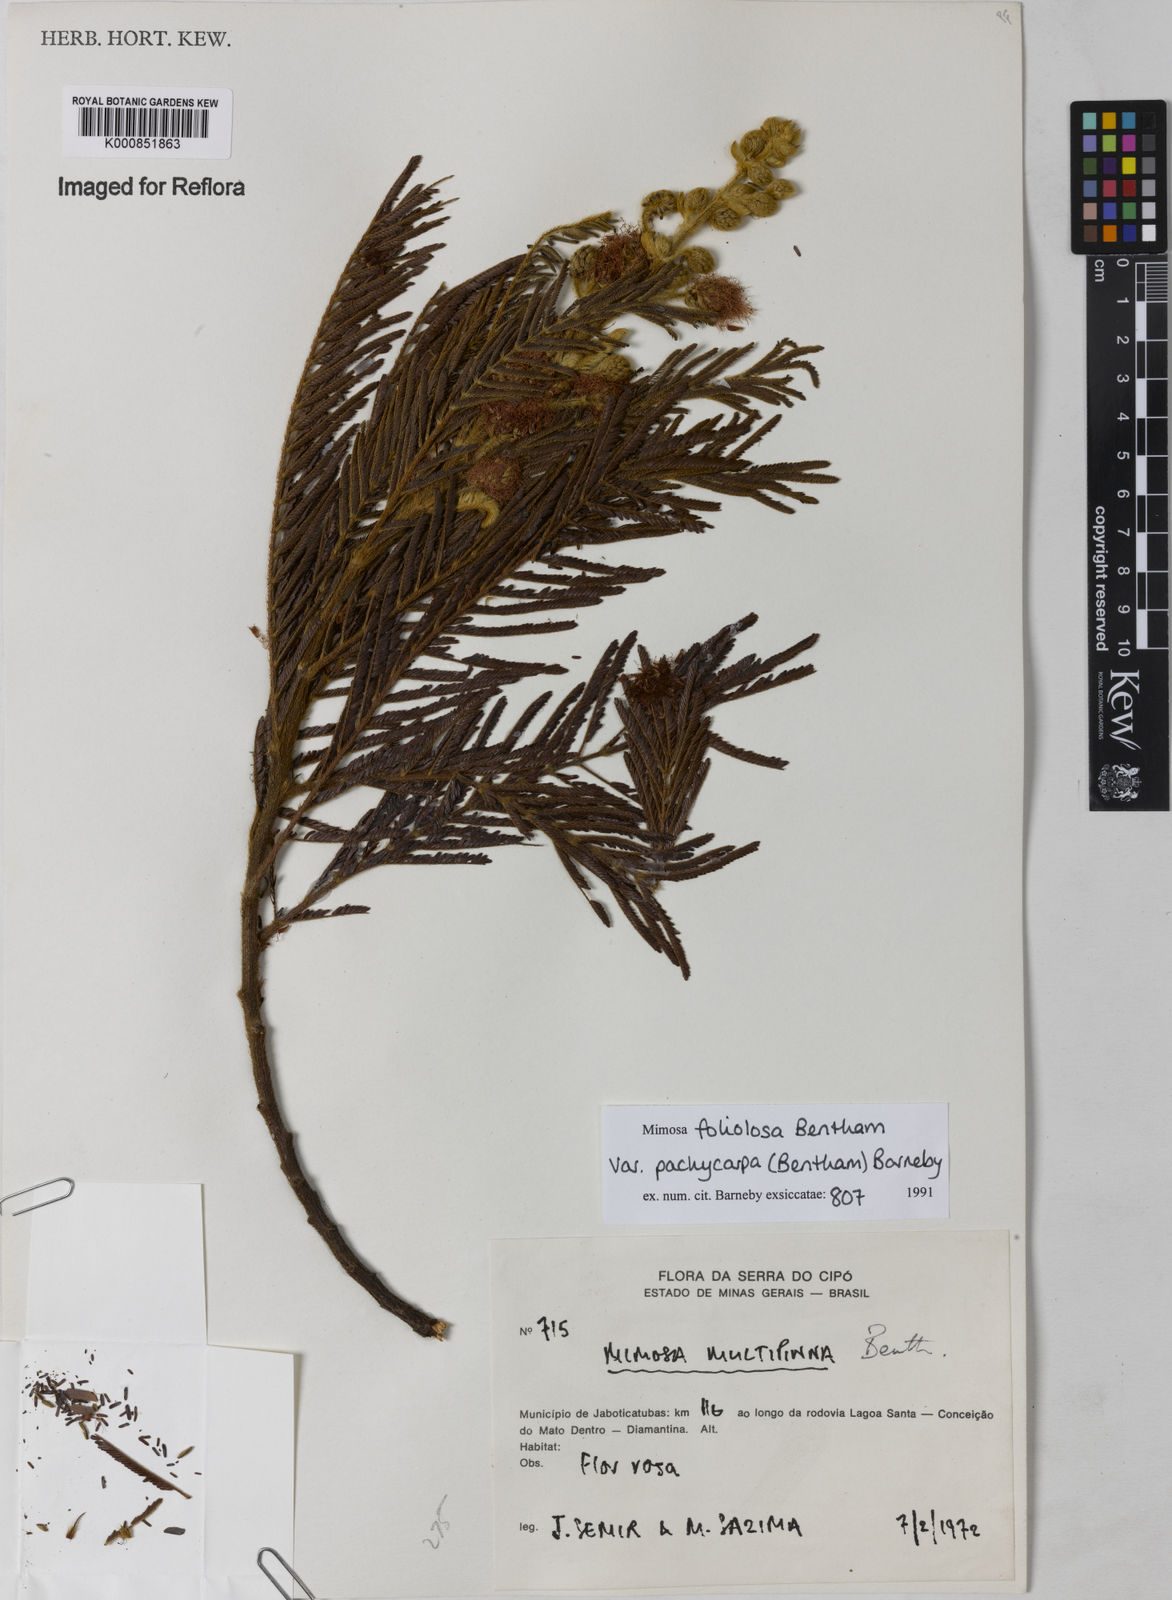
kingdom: Plantae
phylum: Tracheophyta
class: Magnoliopsida
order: Fabales
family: Fabaceae
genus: Mimosa
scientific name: Mimosa foliolosa
